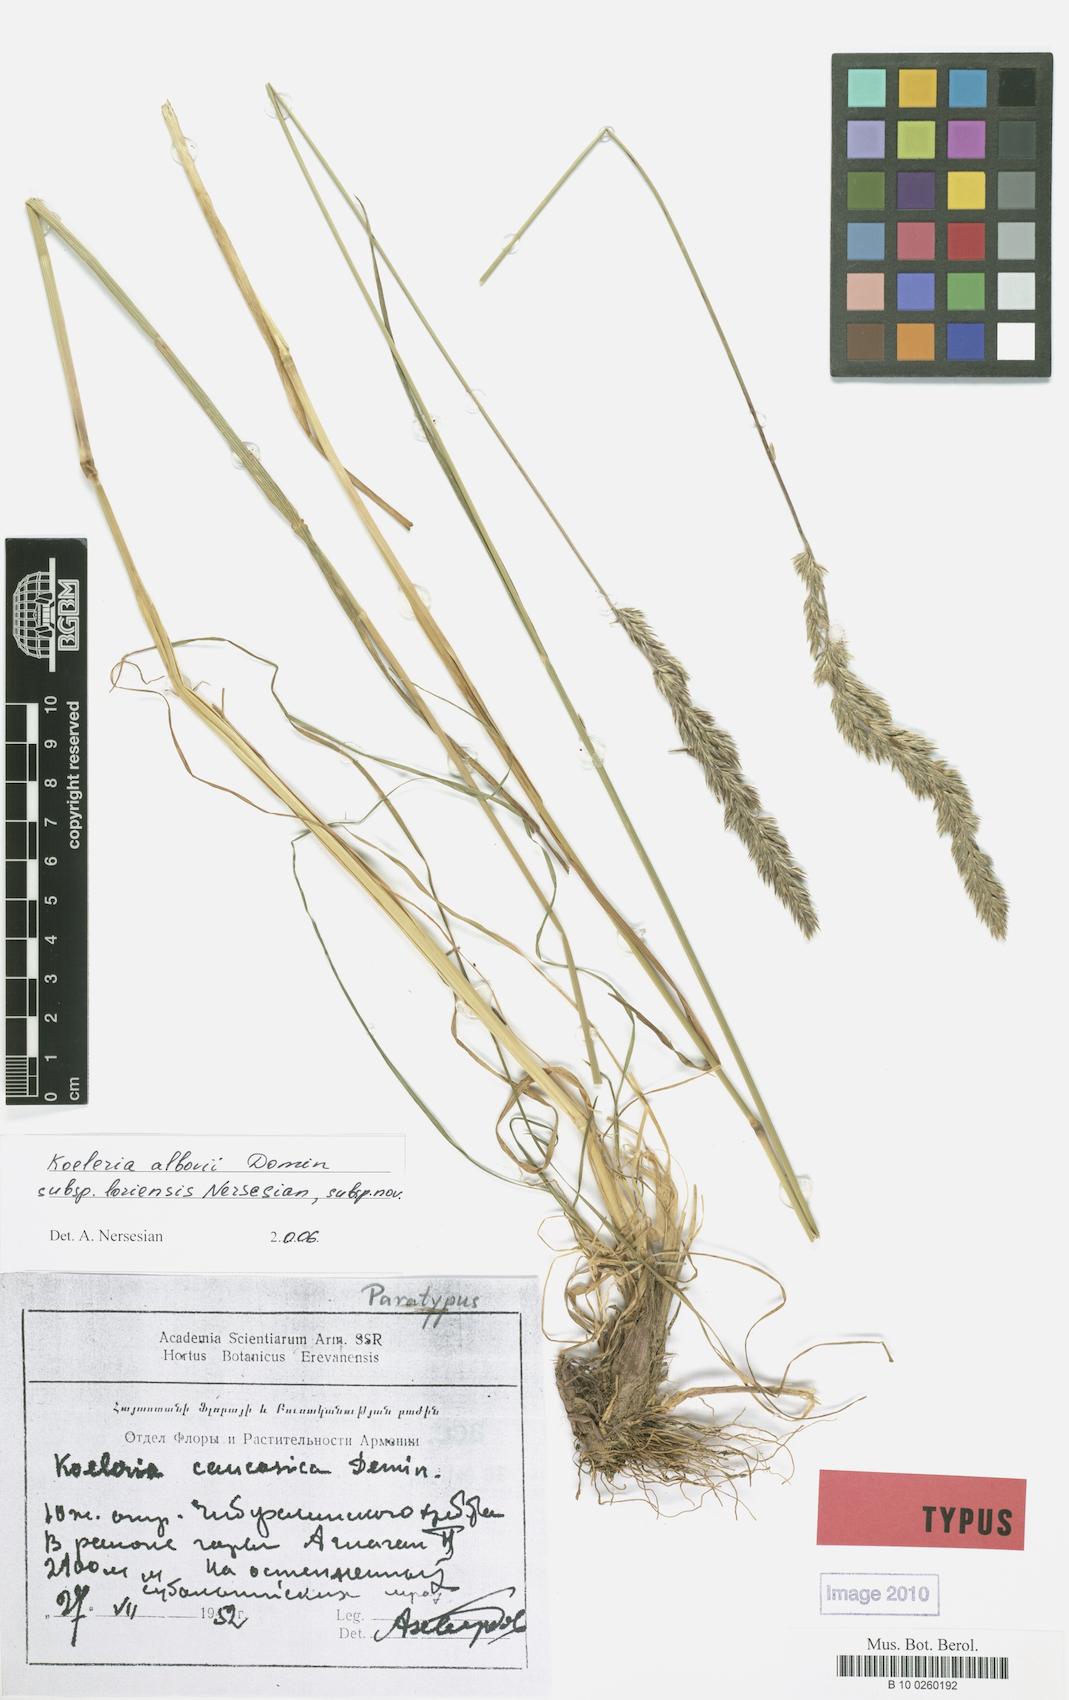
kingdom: Plantae
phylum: Tracheophyta
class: Liliopsida
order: Poales
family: Poaceae
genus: Koeleria
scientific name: Koeleria eriostachya
